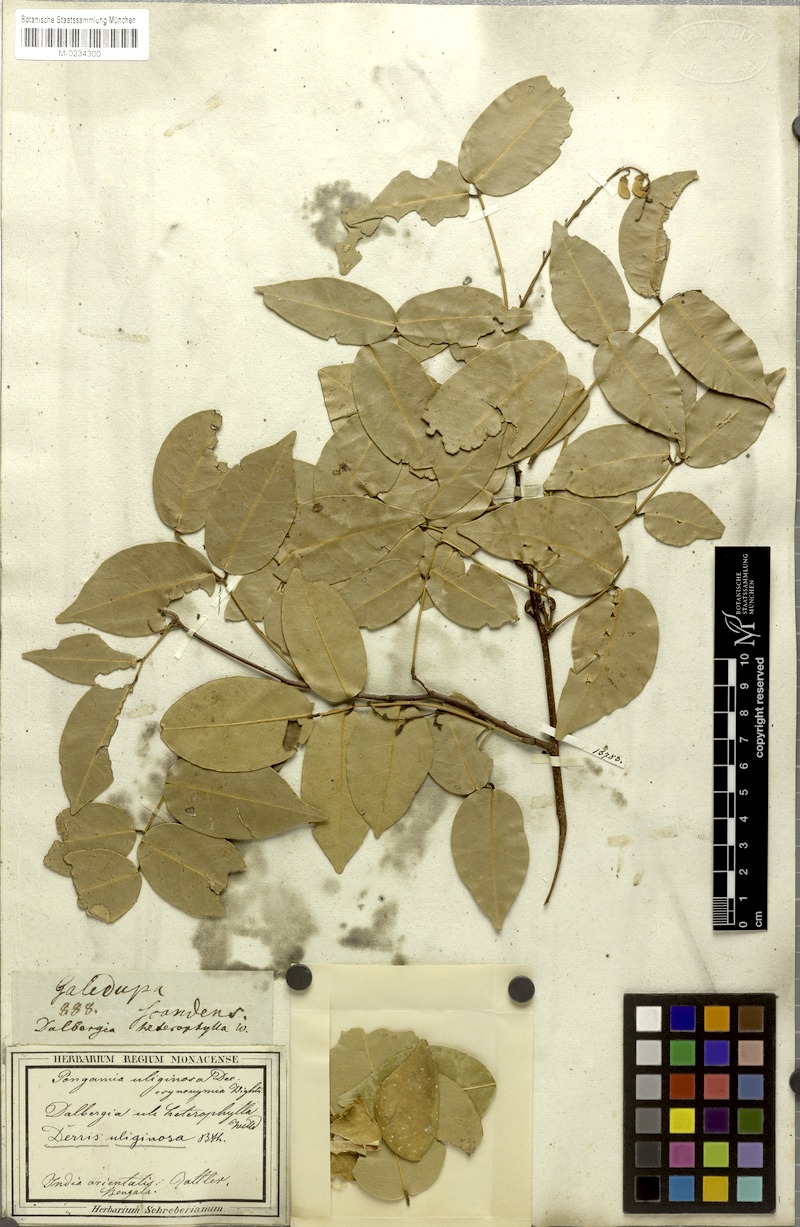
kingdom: Plantae
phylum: Tracheophyta
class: Magnoliopsida
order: Fabales
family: Fabaceae
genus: Derris
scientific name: Derris trifoliata
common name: Three-leaf derris
